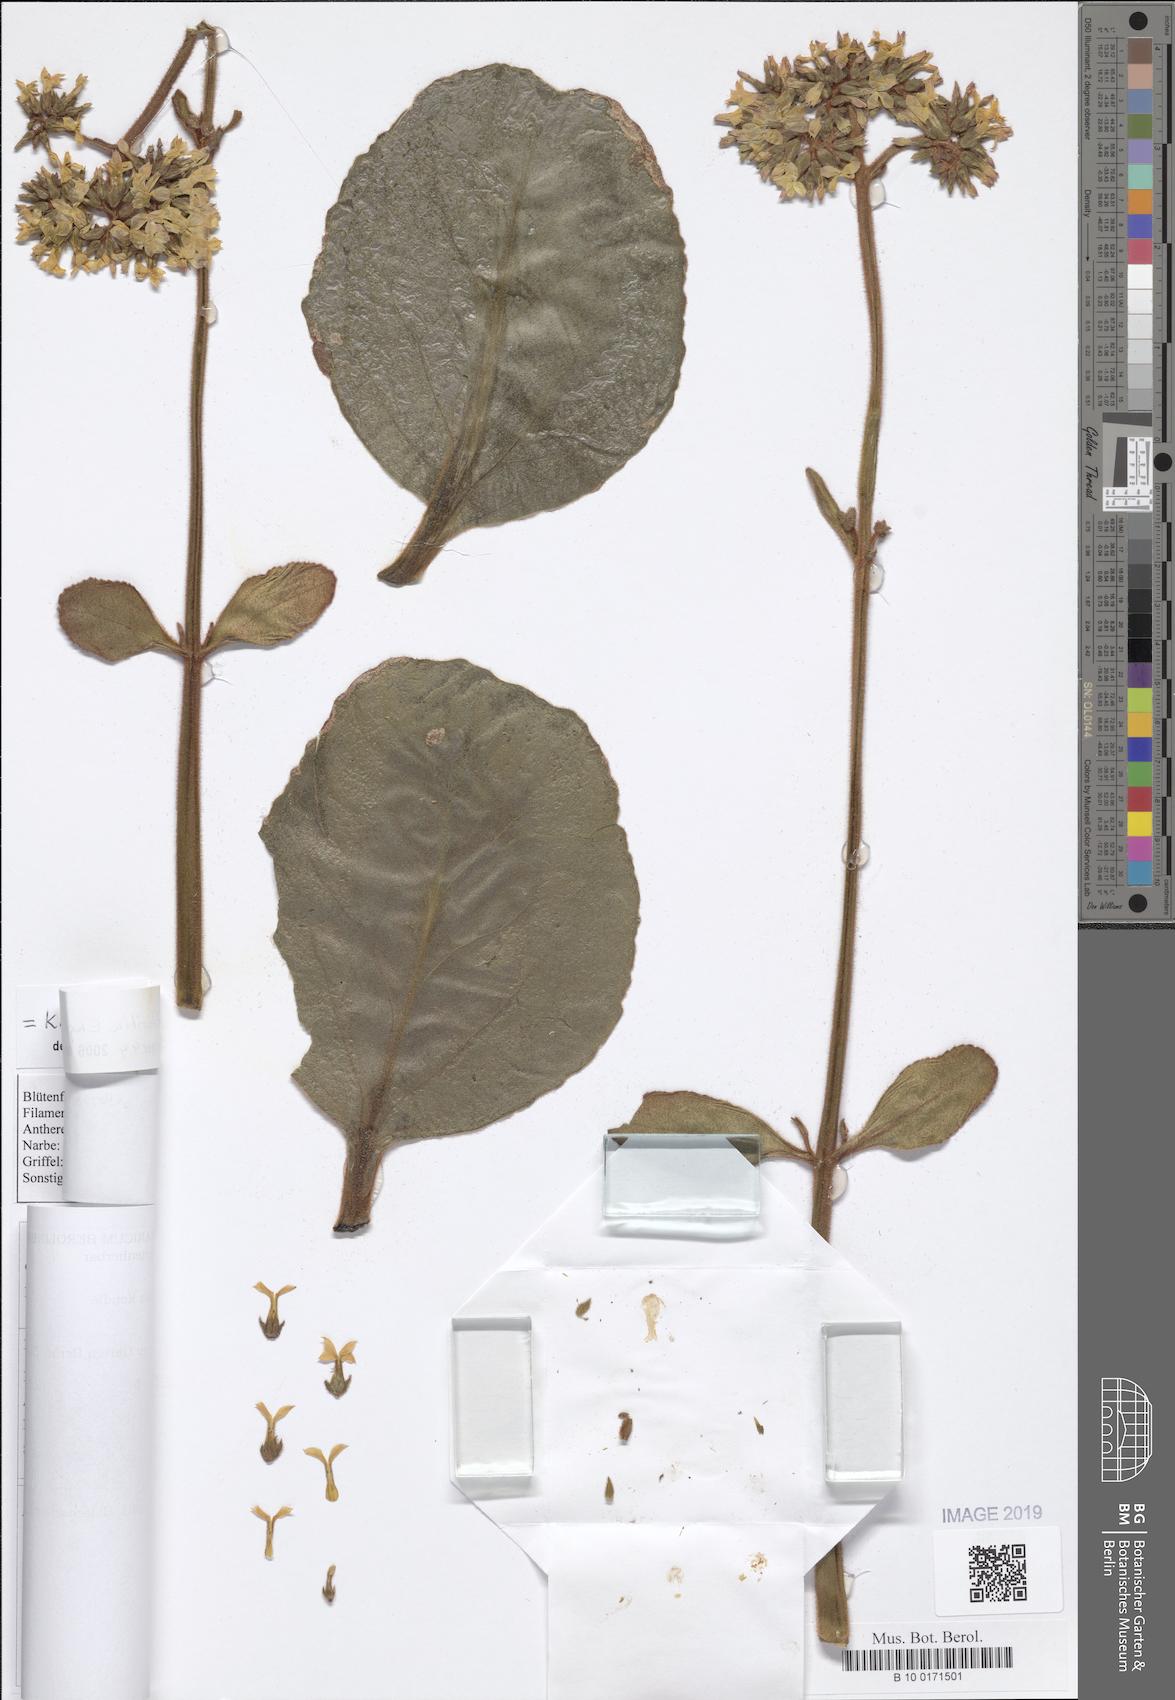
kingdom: Plantae
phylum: Tracheophyta
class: Magnoliopsida
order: Saxifragales
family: Crassulaceae
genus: Kalanchoe
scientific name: Kalanchoe lateritia
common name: Kalanchoe
